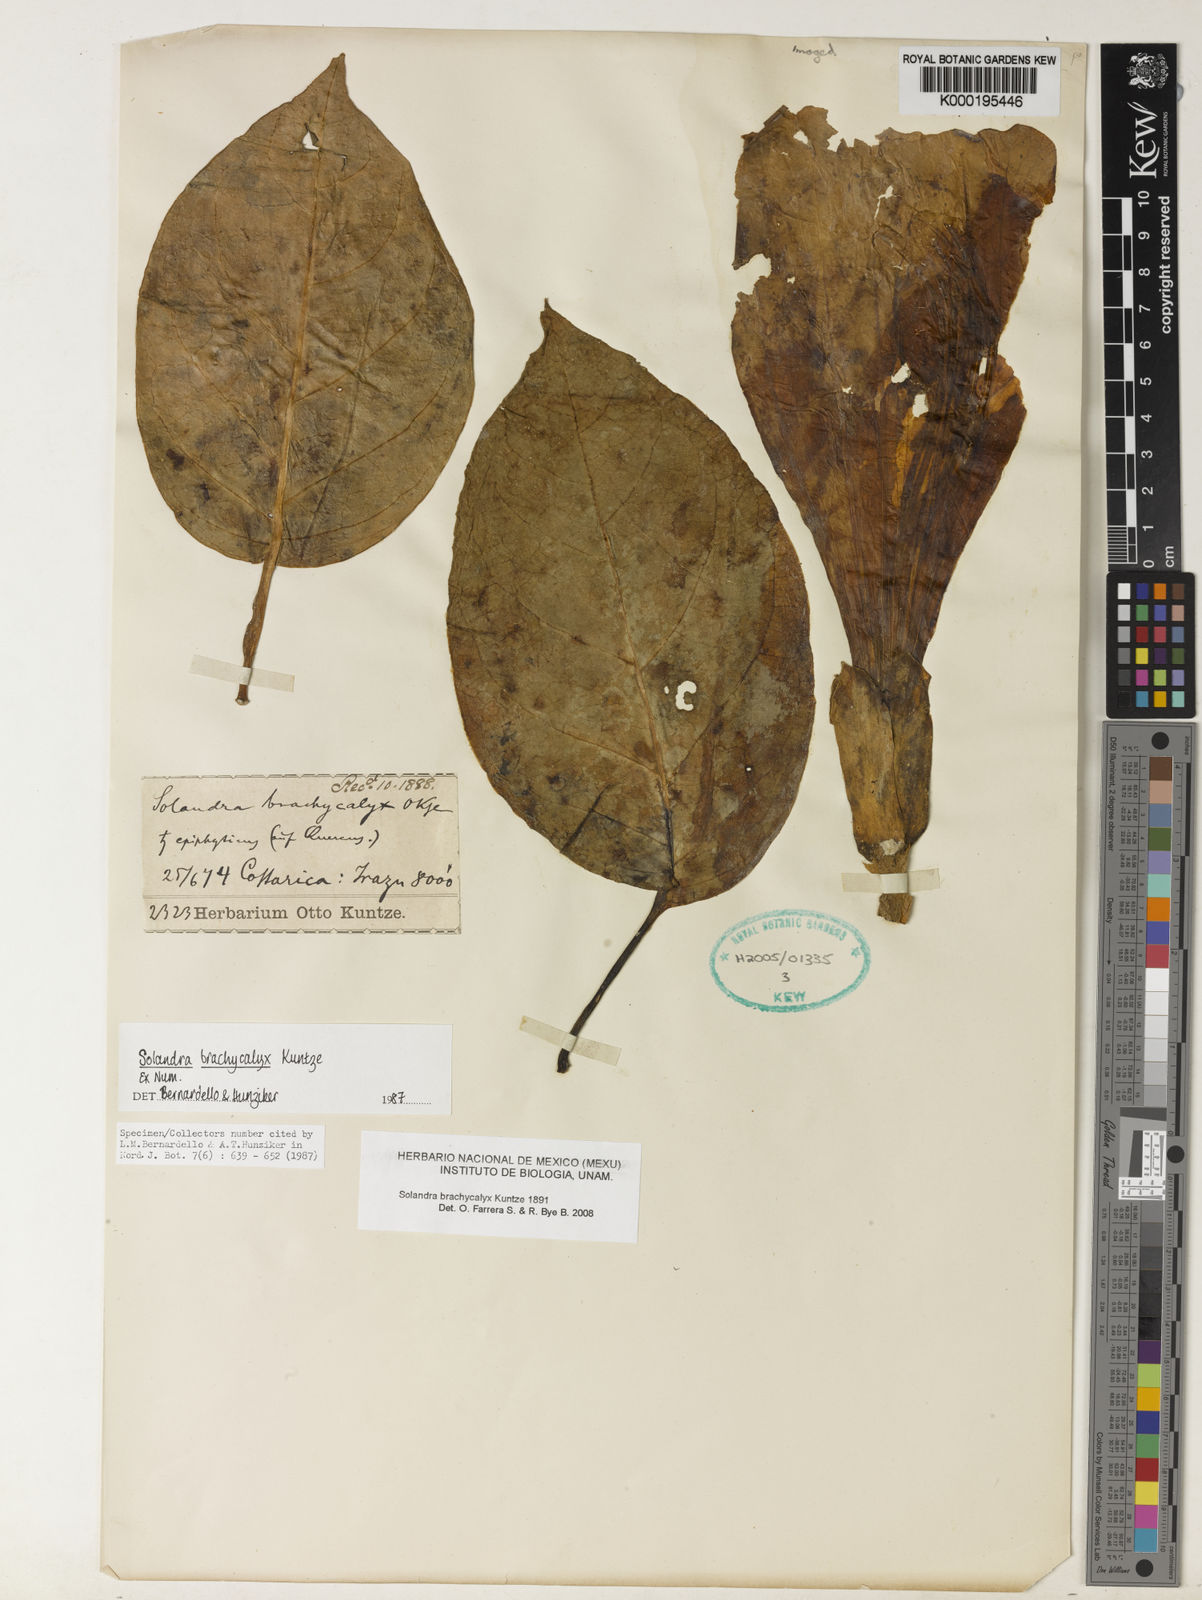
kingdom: Plantae
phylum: Tracheophyta
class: Magnoliopsida
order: Solanales
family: Solanaceae
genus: Solandra
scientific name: Solandra brachycalyx
